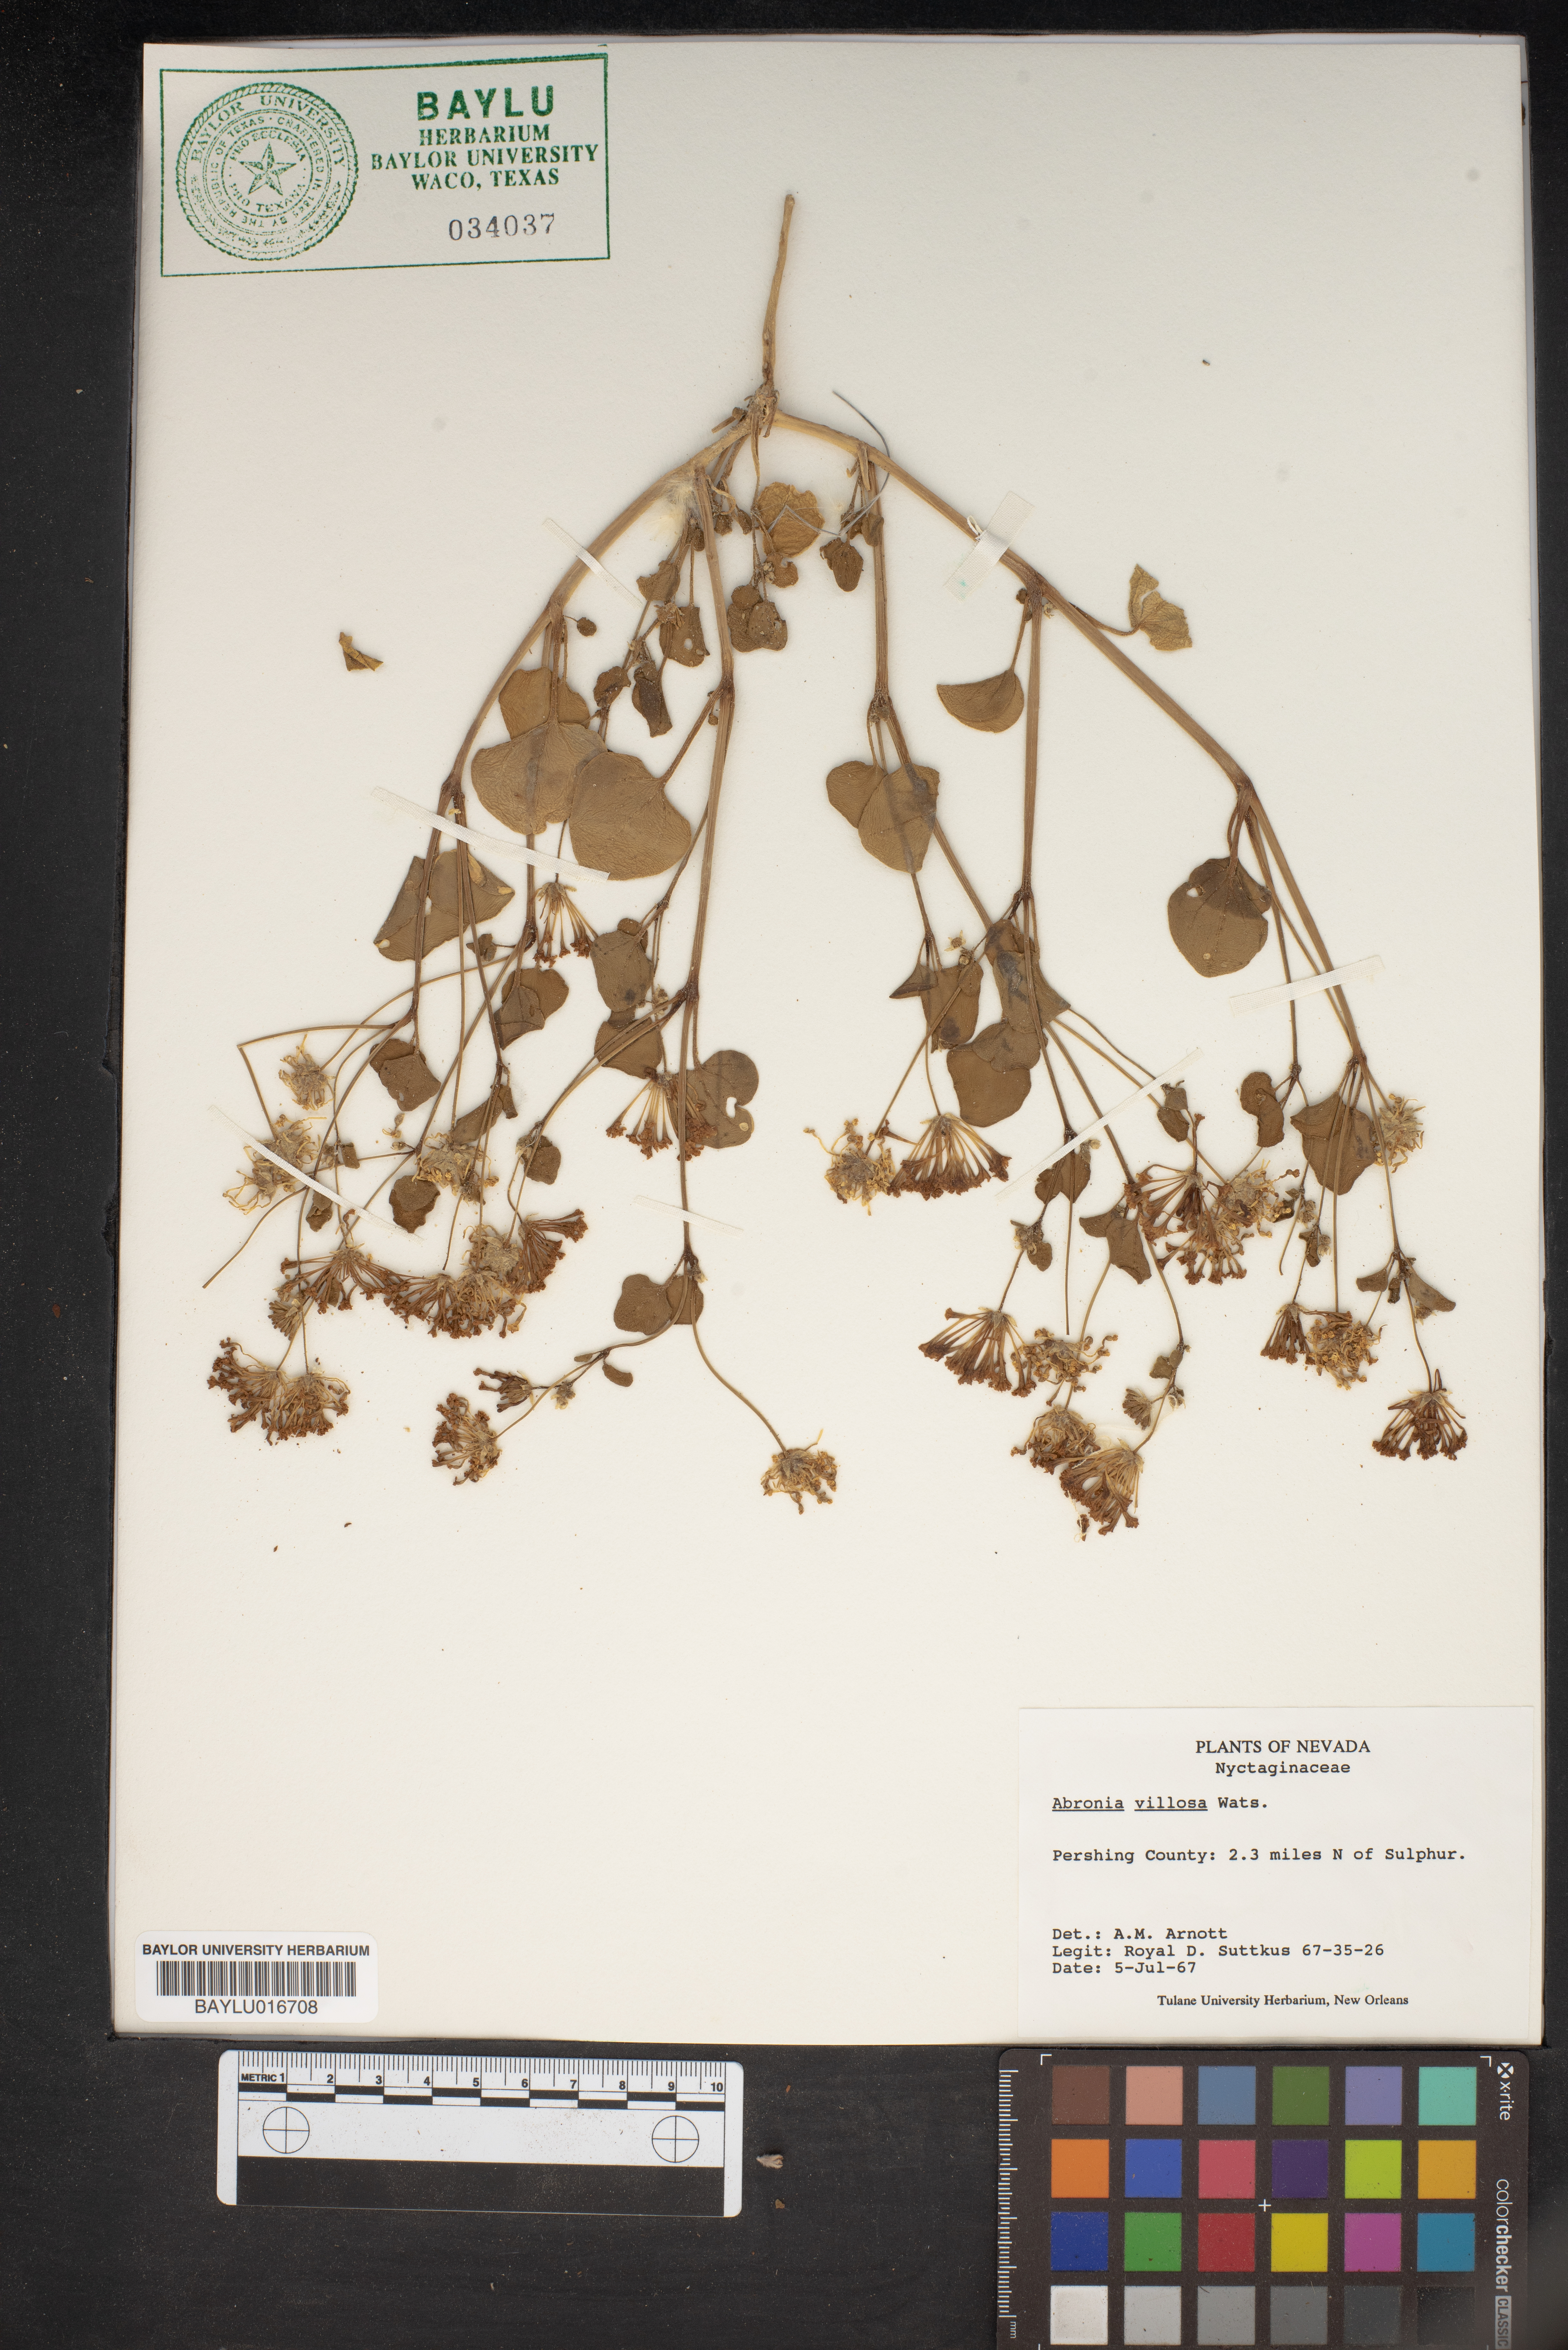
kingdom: Plantae
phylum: Tracheophyta
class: Magnoliopsida
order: Caryophyllales
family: Nyctaginaceae
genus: Abronia
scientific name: Abronia villosa
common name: Desert sand-verbena
